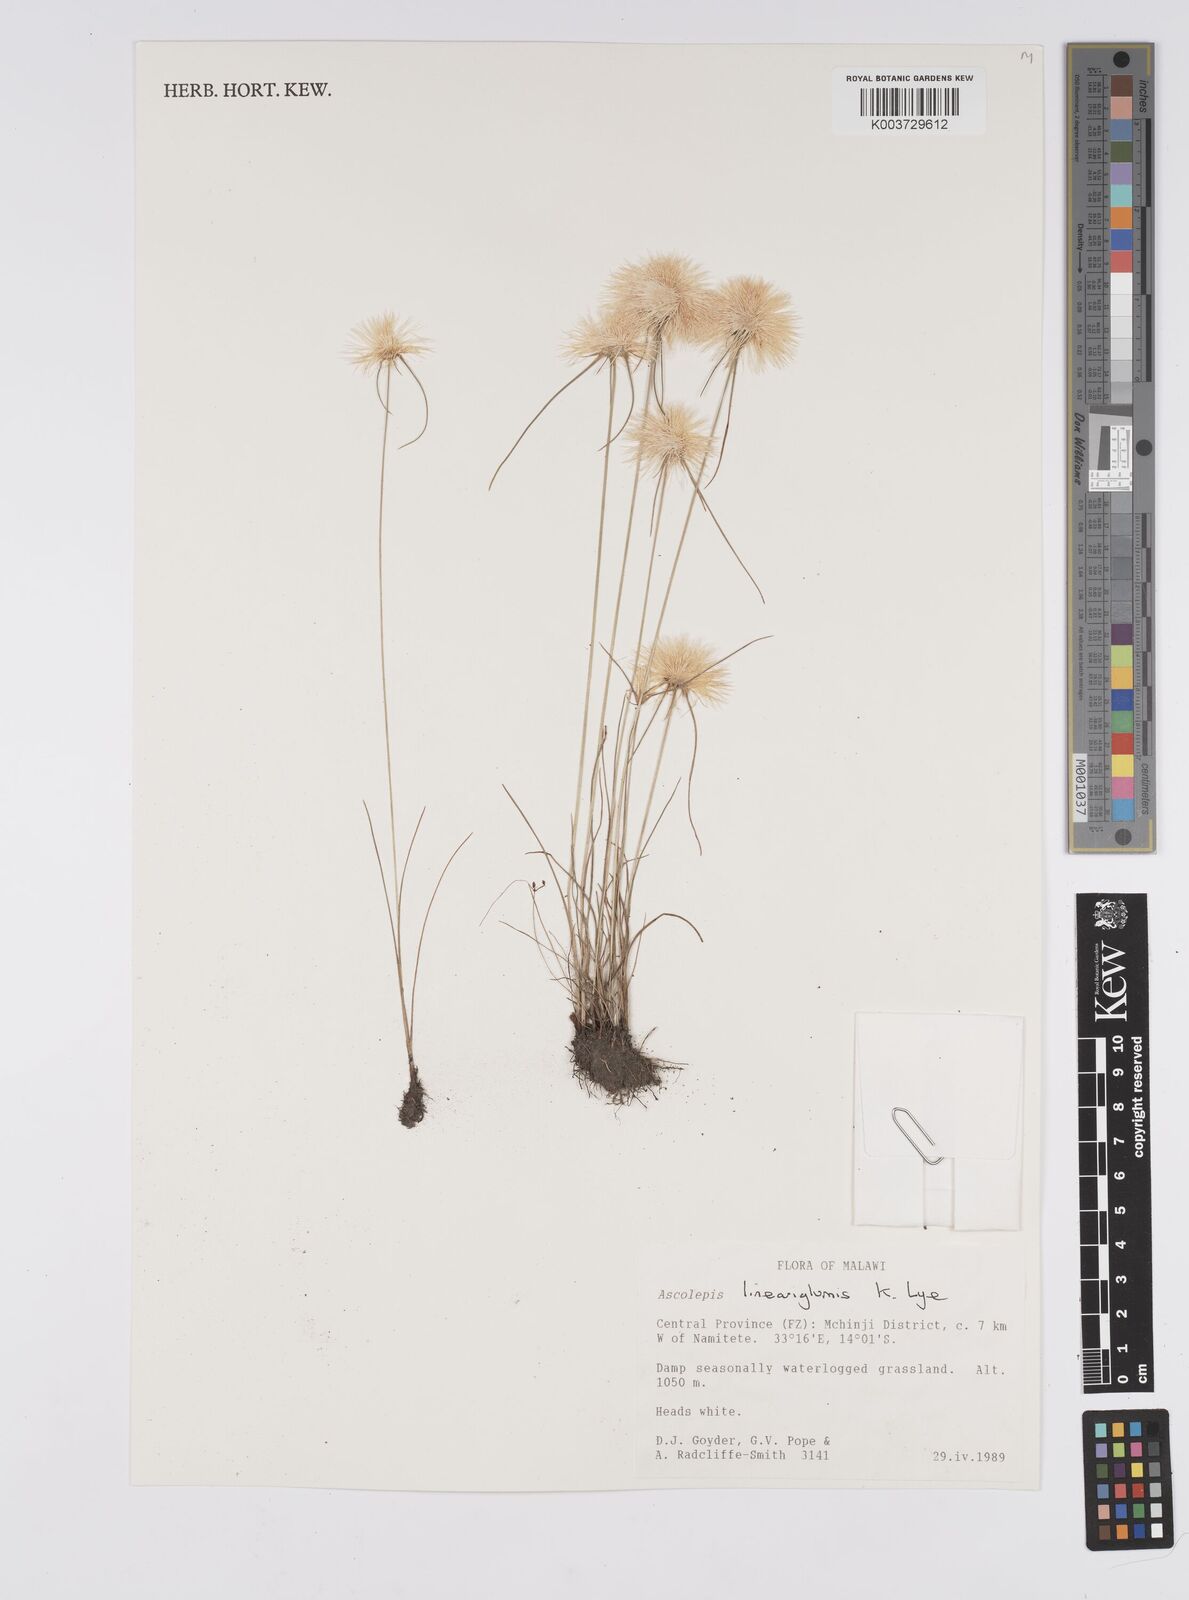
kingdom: Plantae
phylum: Tracheophyta
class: Liliopsida
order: Poales
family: Cyperaceae
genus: Cyperus
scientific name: Cyperus
